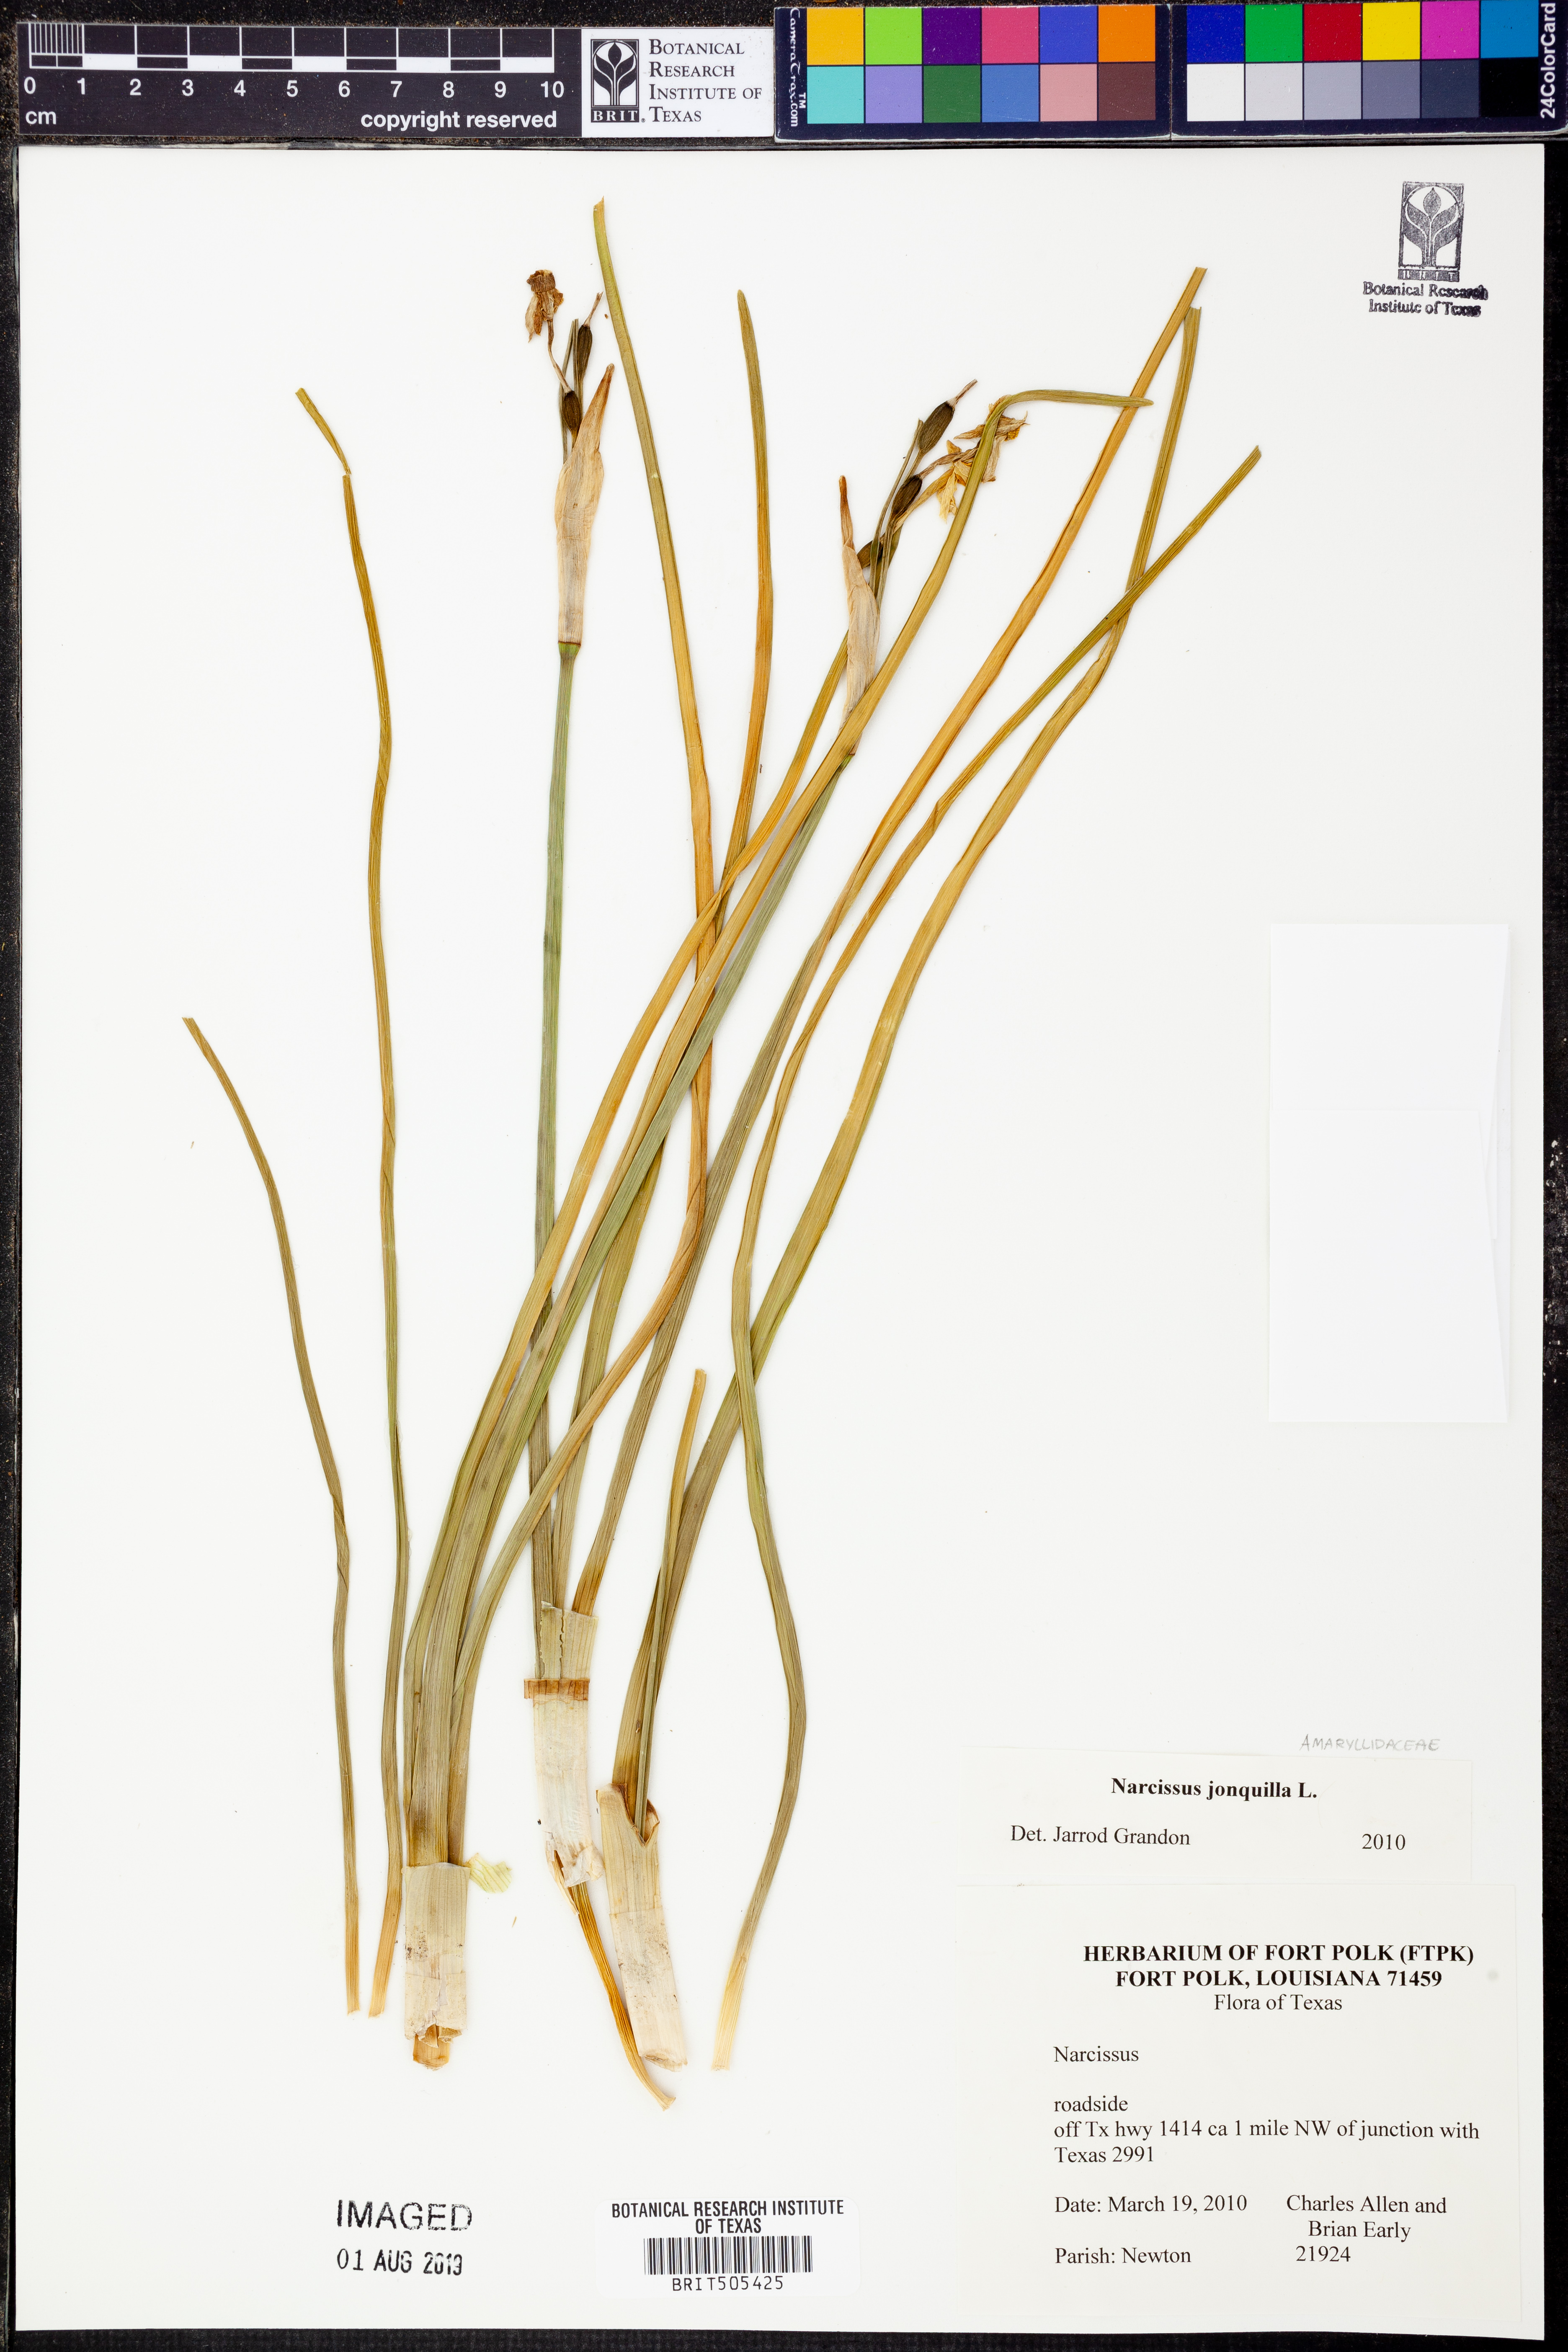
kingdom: Plantae
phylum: Tracheophyta
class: Liliopsida
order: Asparagales
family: Amaryllidaceae
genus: Narcissus
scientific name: Narcissus jonquilla
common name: Jonquil
